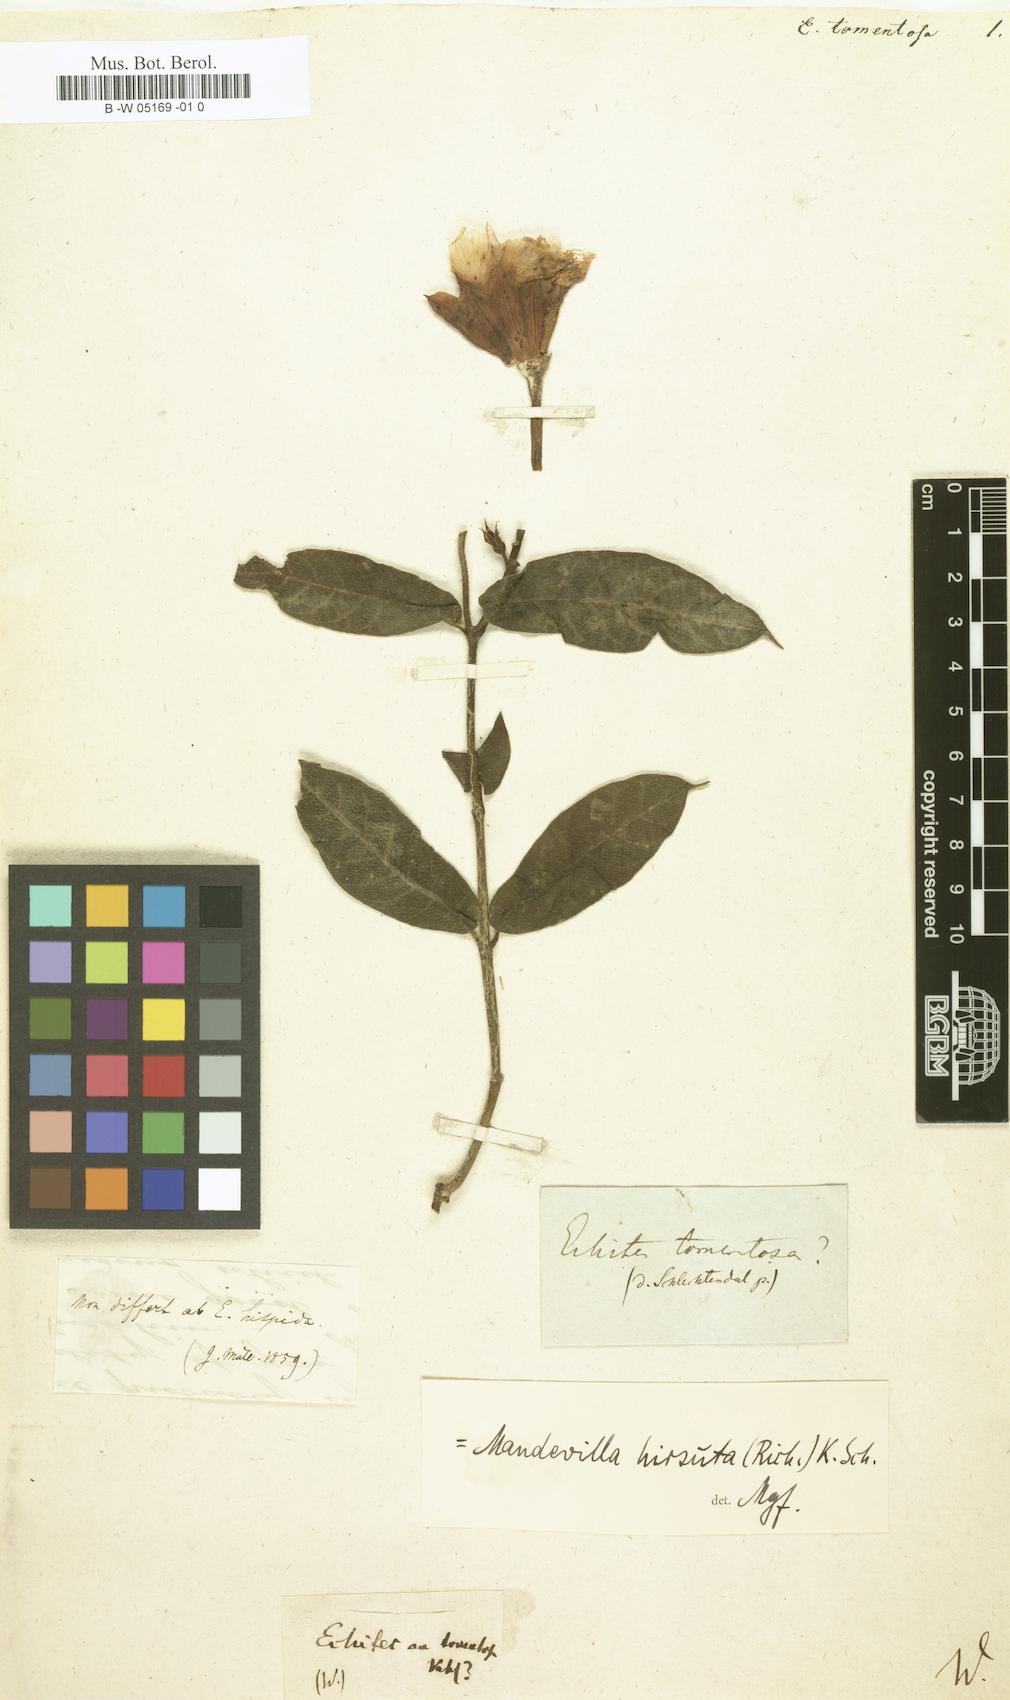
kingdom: Plantae
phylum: Tracheophyta
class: Magnoliopsida
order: Gentianales
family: Apocynaceae
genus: Mandevilla
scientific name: Mandevilla hirsuta
